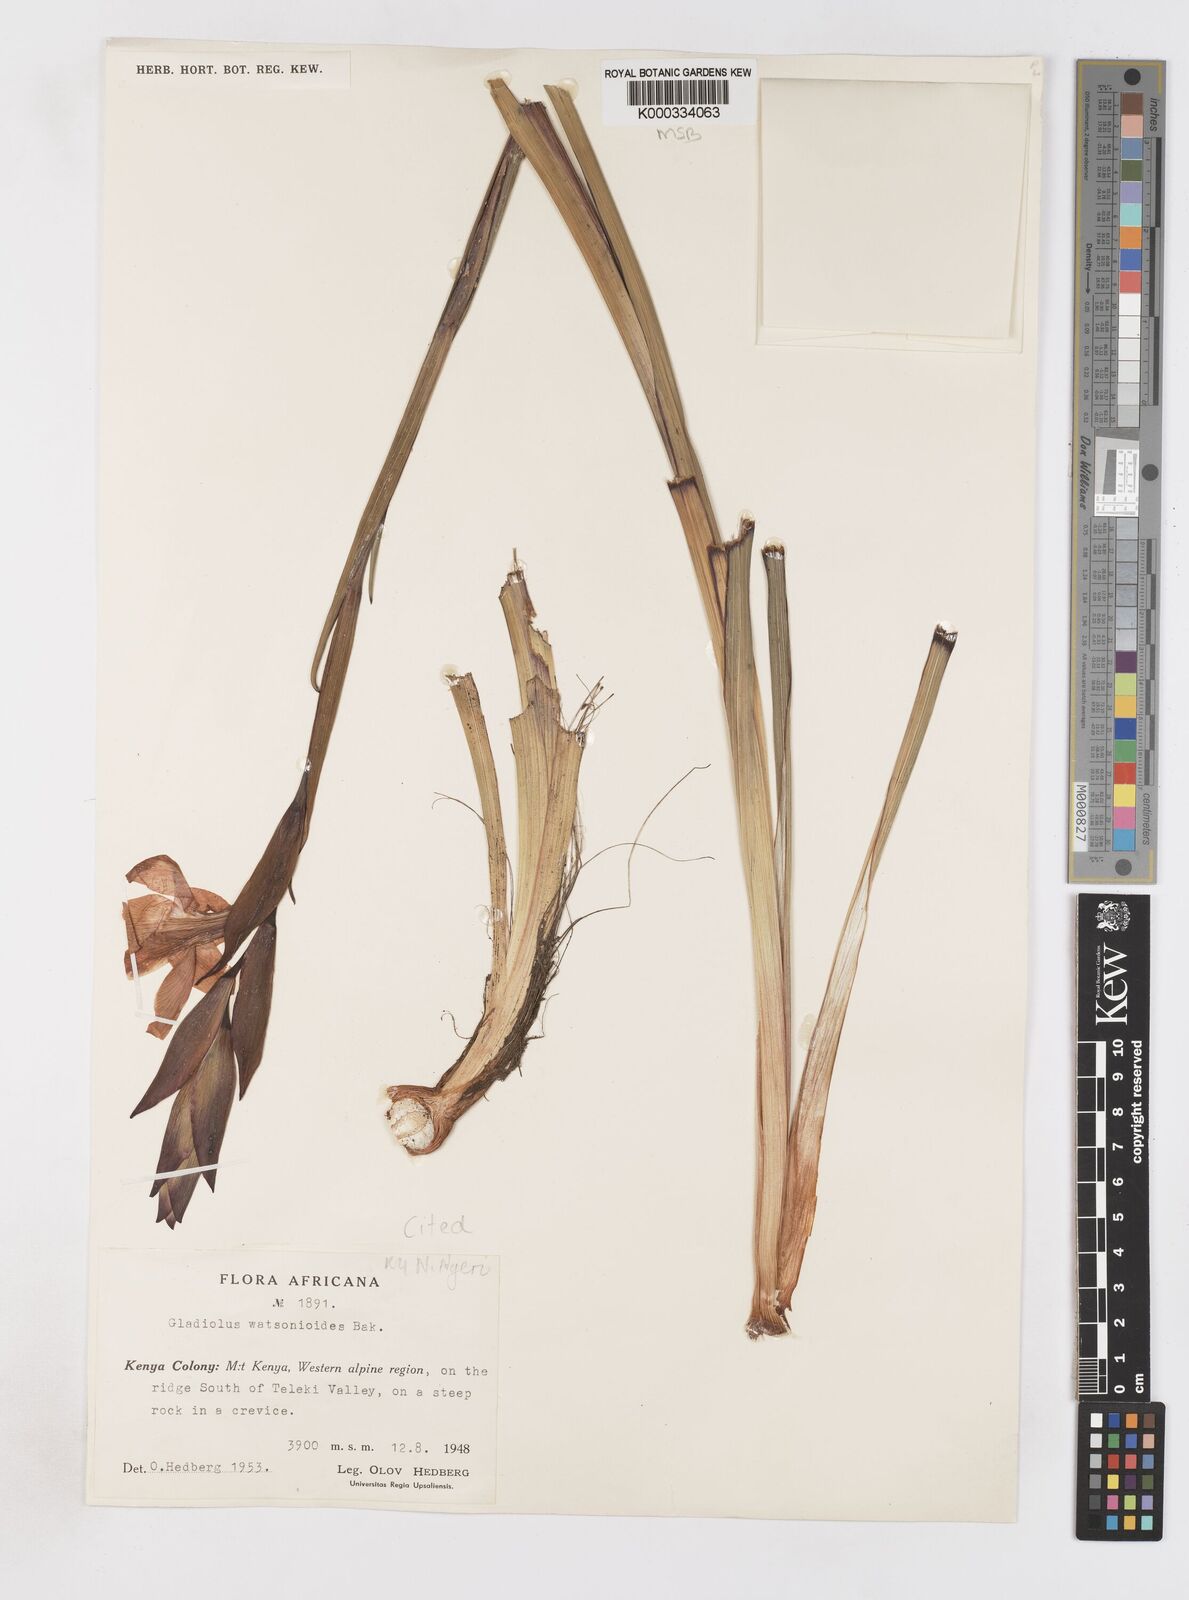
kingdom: Plantae
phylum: Tracheophyta
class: Liliopsida
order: Asparagales
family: Iridaceae
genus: Gladiolus
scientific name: Gladiolus watsonioides
